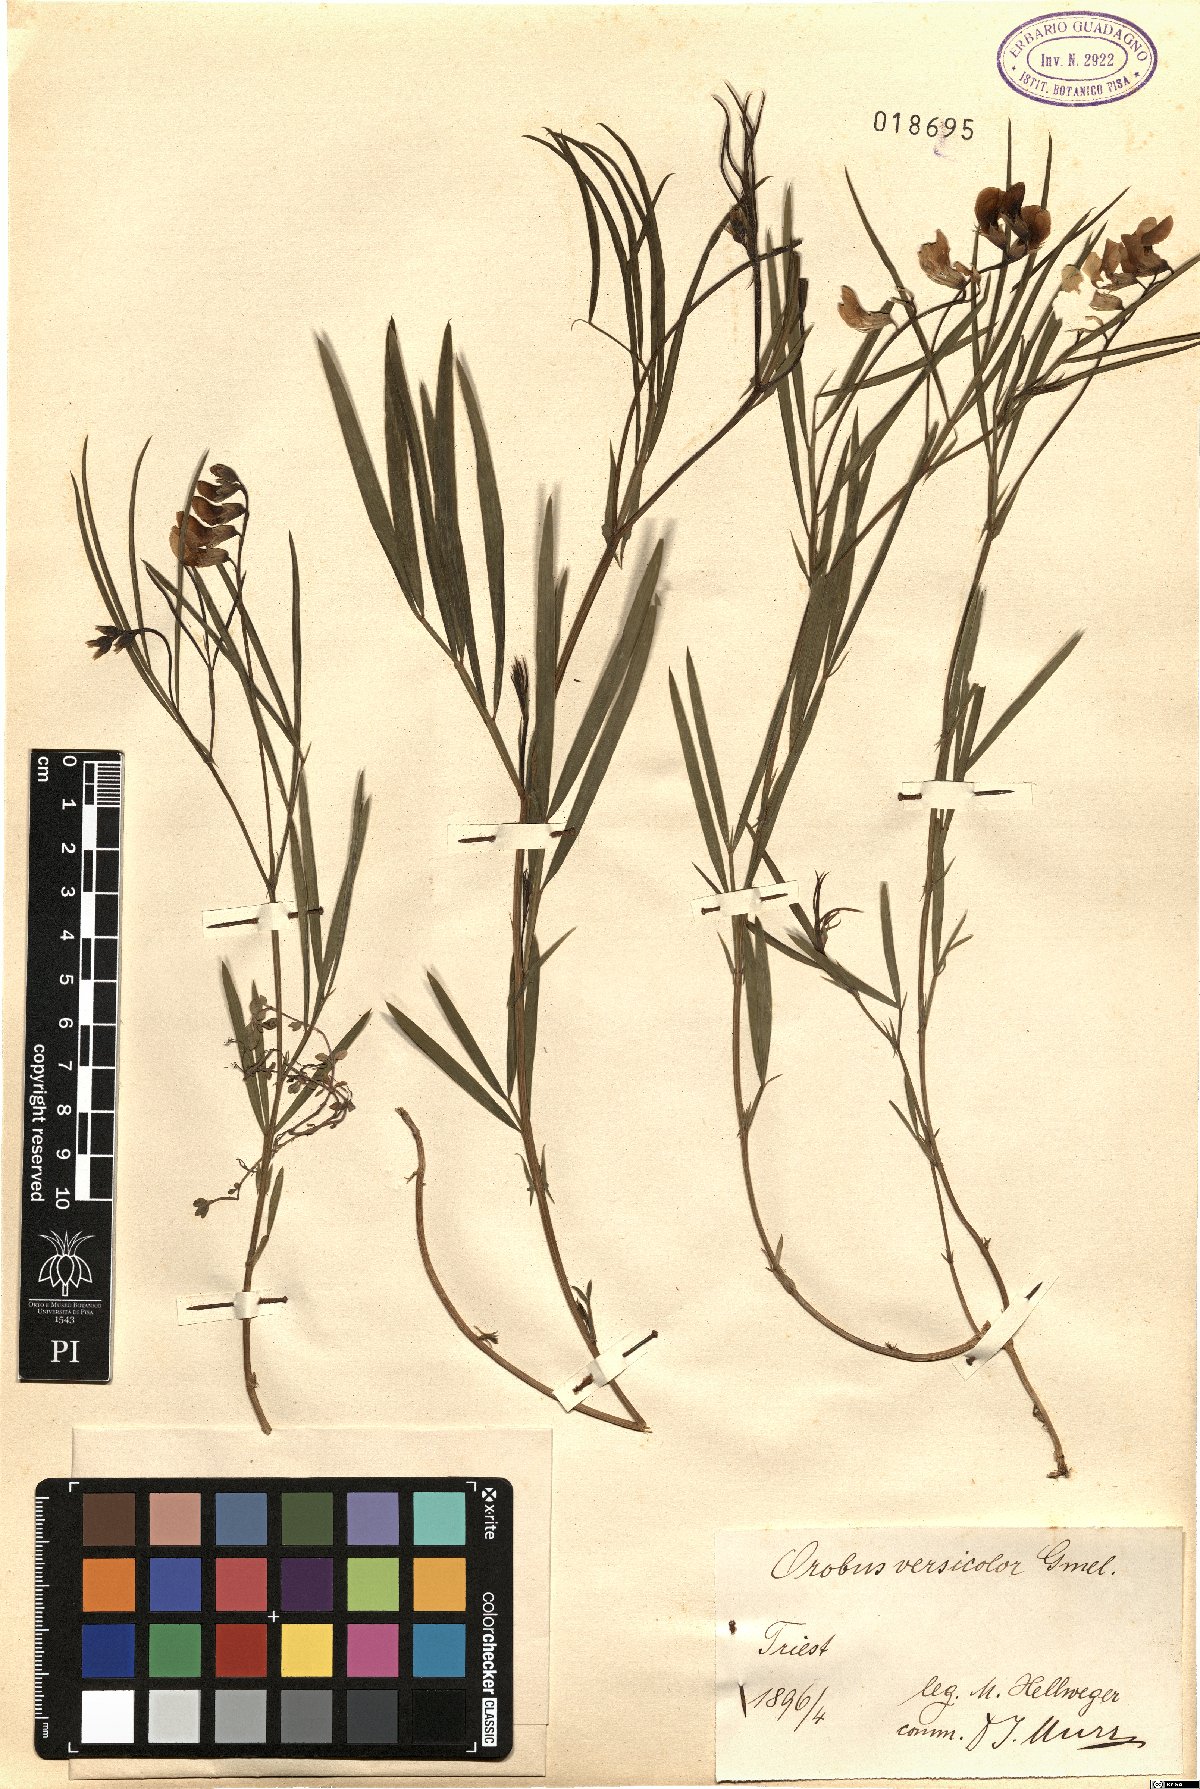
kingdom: Plantae
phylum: Tracheophyta
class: Magnoliopsida
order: Fabales
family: Fabaceae
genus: Lathyrus
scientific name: Lathyrus pannonicus
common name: Pea
